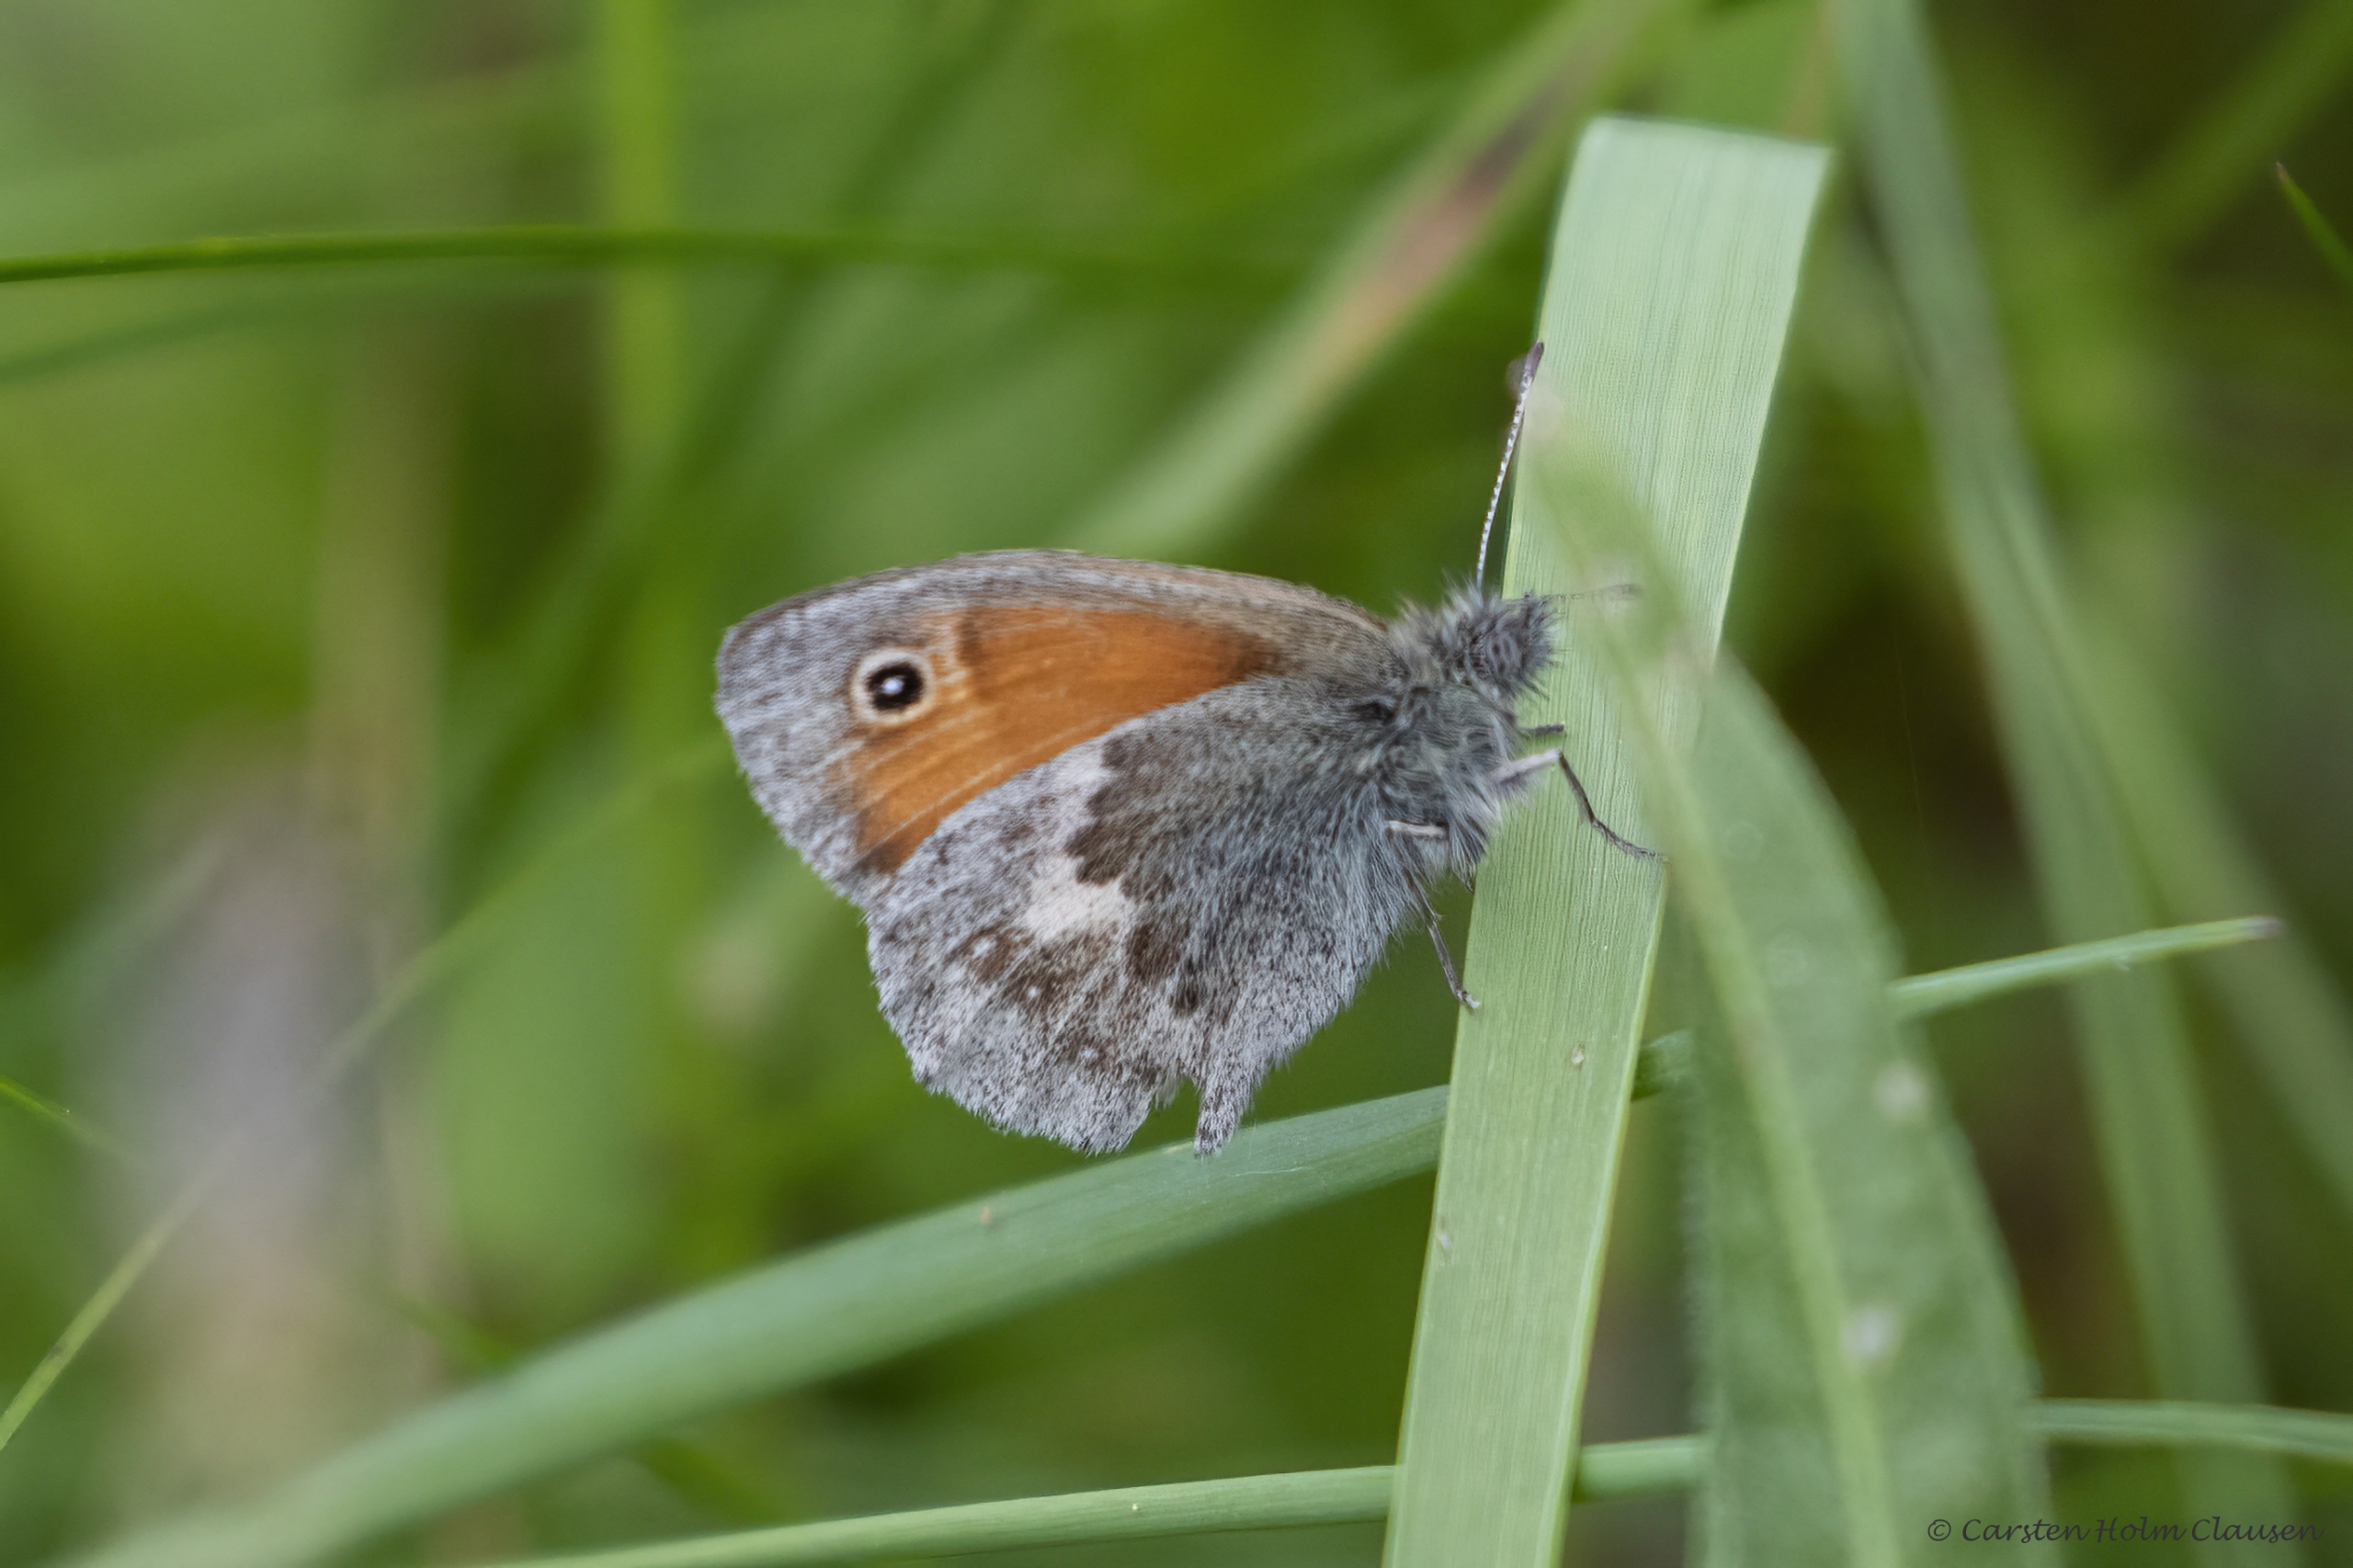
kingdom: Animalia
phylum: Arthropoda
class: Insecta
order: Lepidoptera
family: Nymphalidae
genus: Coenonympha
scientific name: Coenonympha pamphilus
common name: Okkergul randøje
